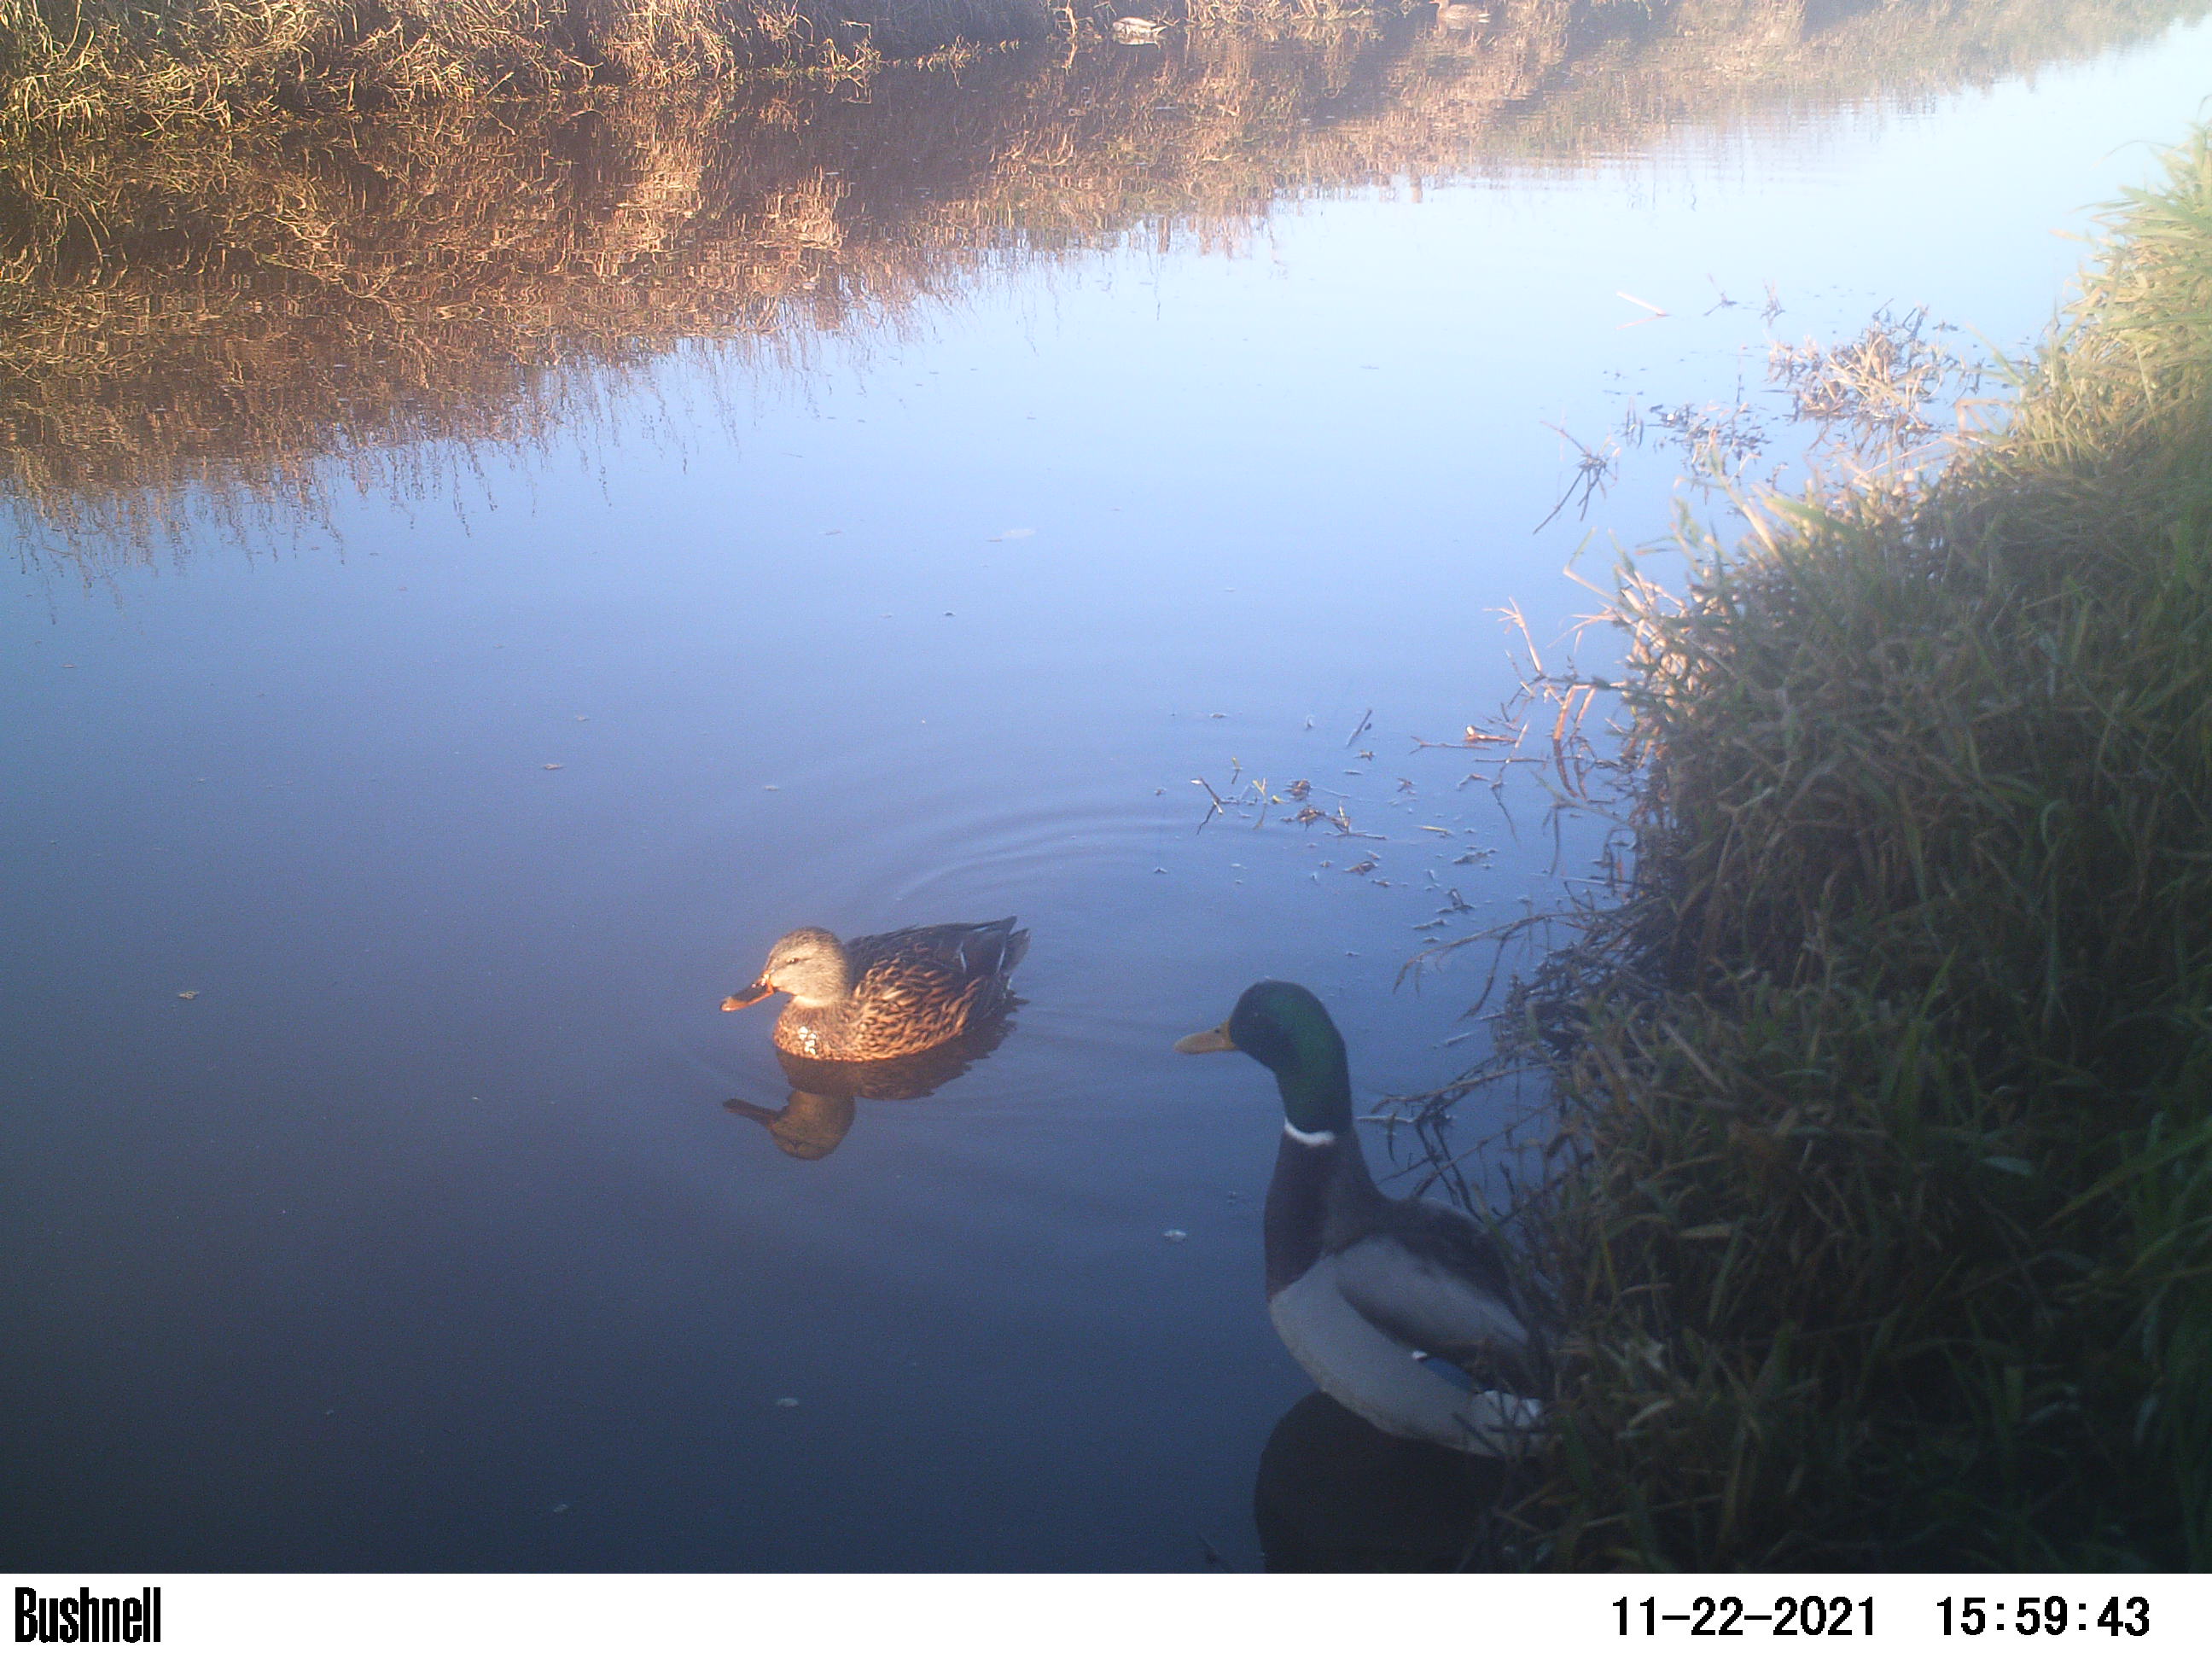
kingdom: Animalia
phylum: Chordata
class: Aves
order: Anseriformes
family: Anatidae
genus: Anas
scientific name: Anas
